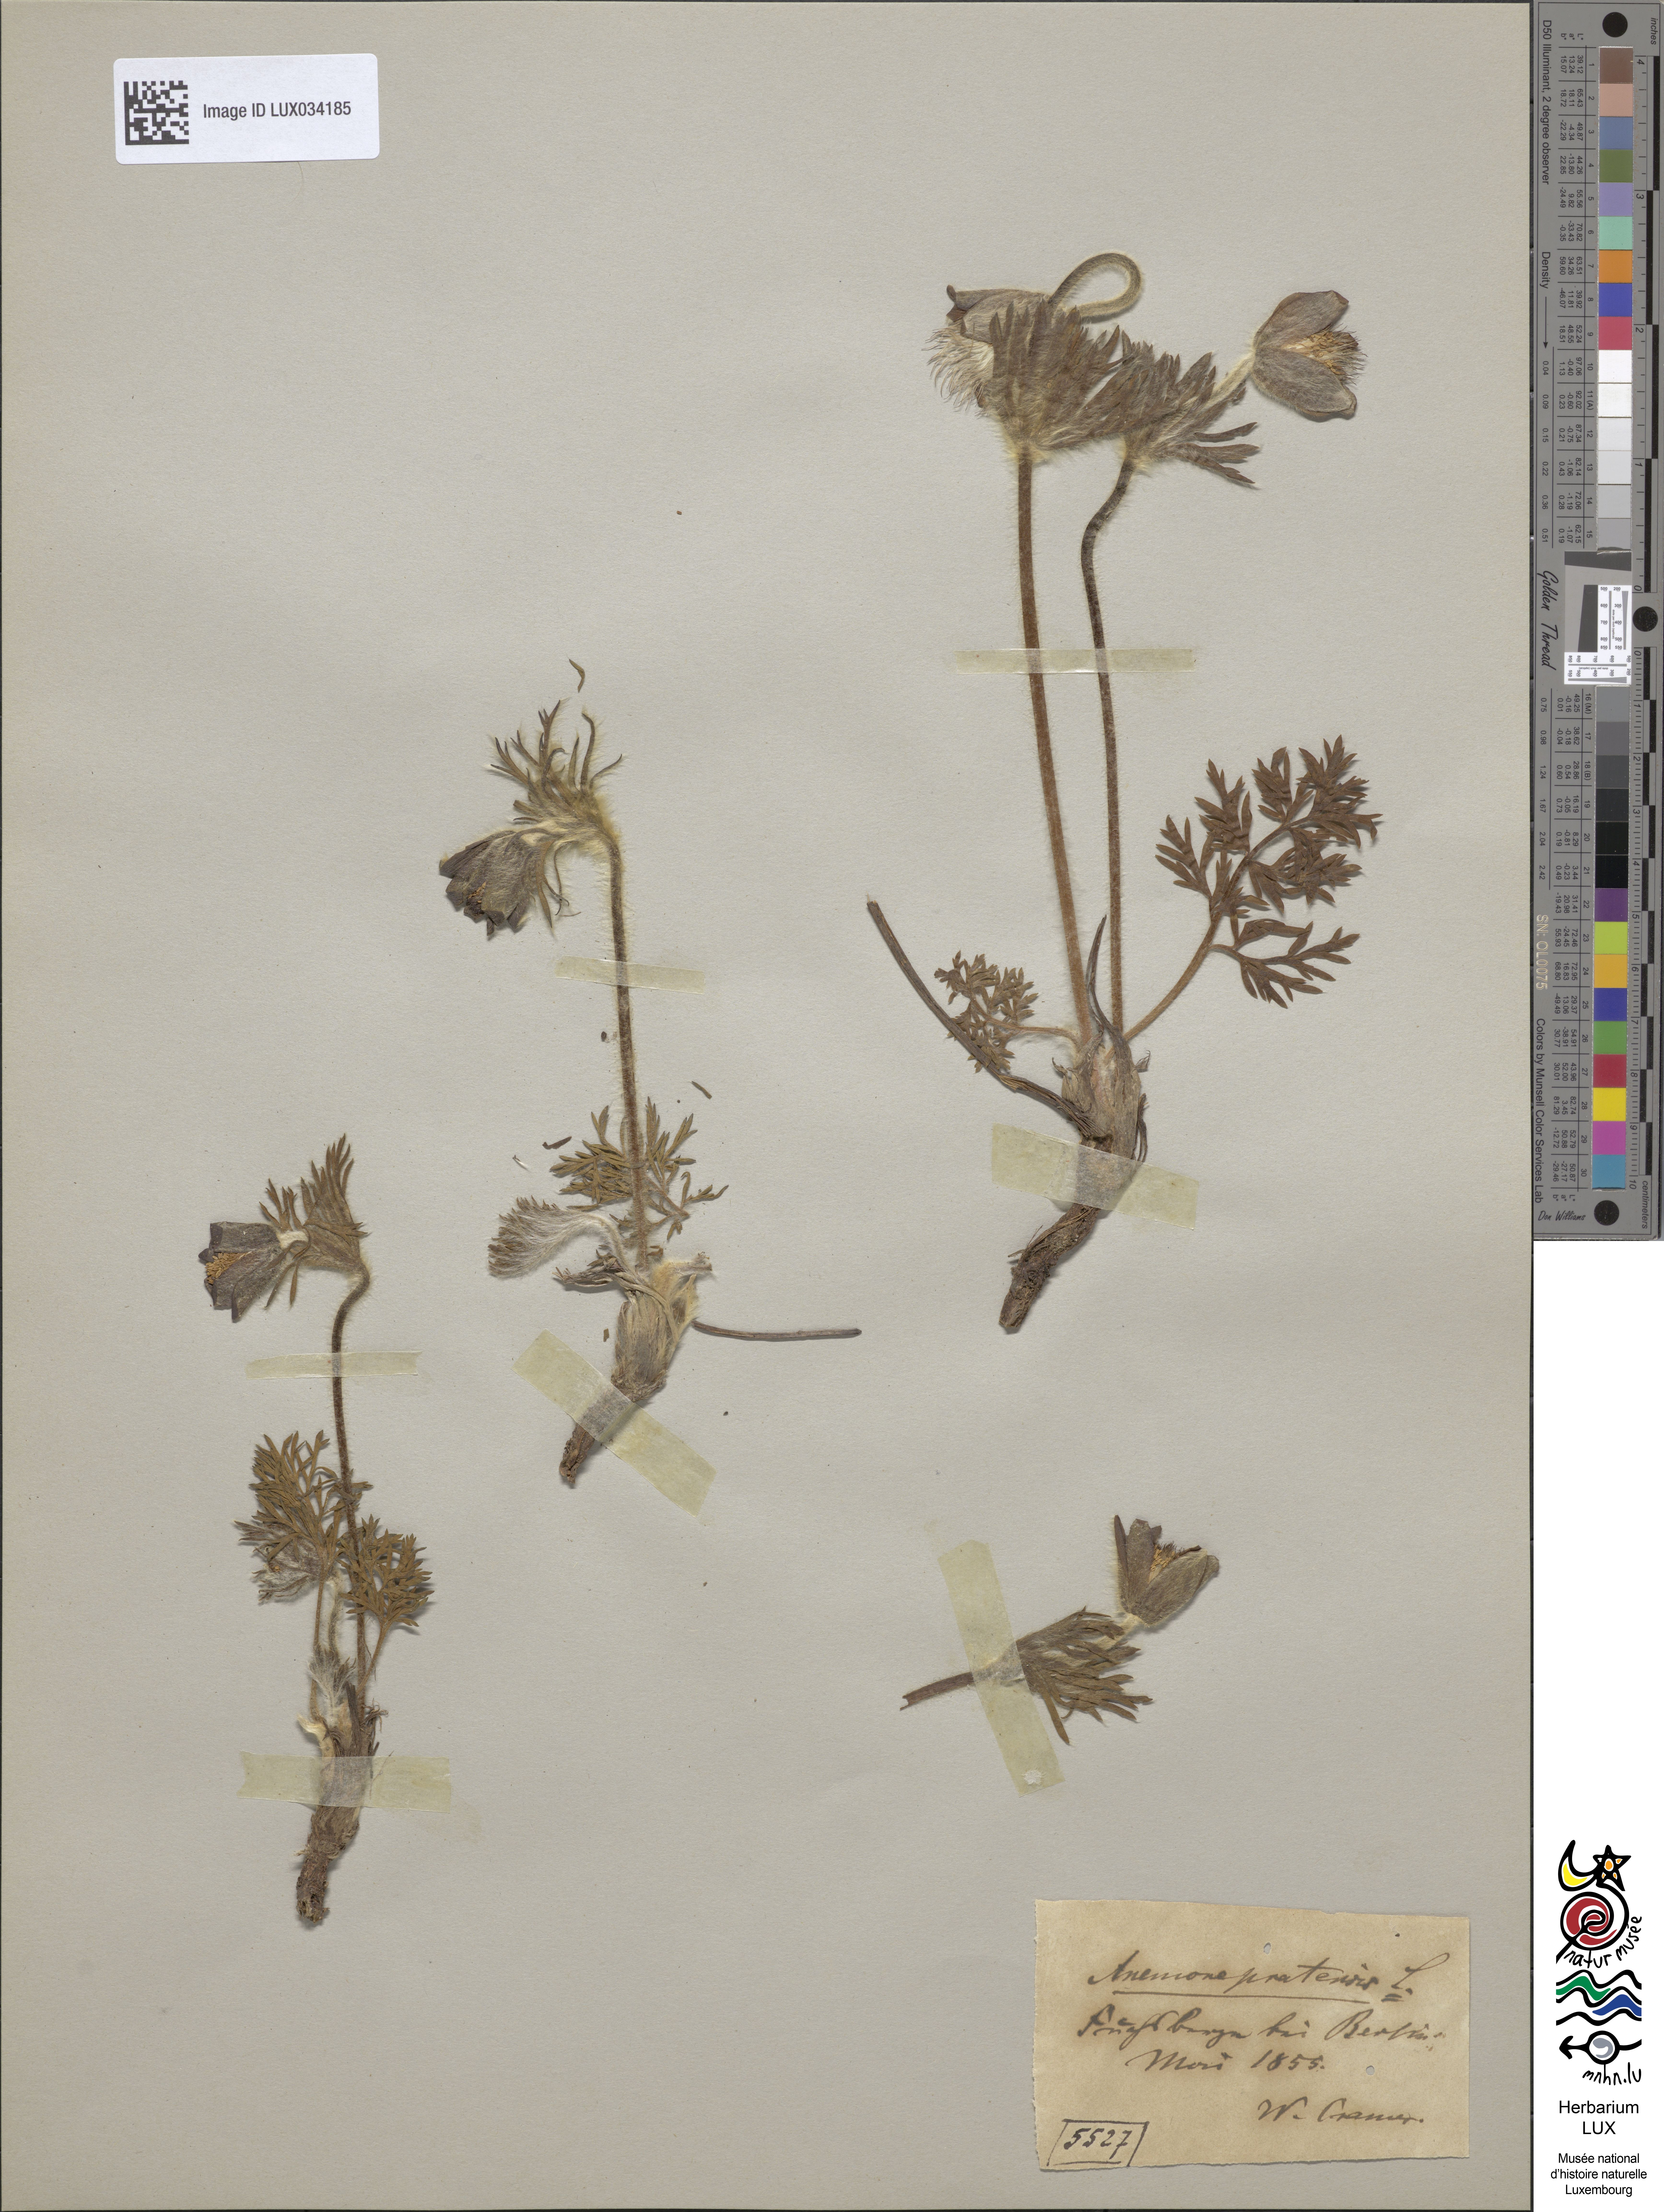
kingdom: Plantae
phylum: Tracheophyta
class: Magnoliopsida
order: Ranunculales
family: Ranunculaceae
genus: Pulsatilla
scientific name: Pulsatilla pratensis
